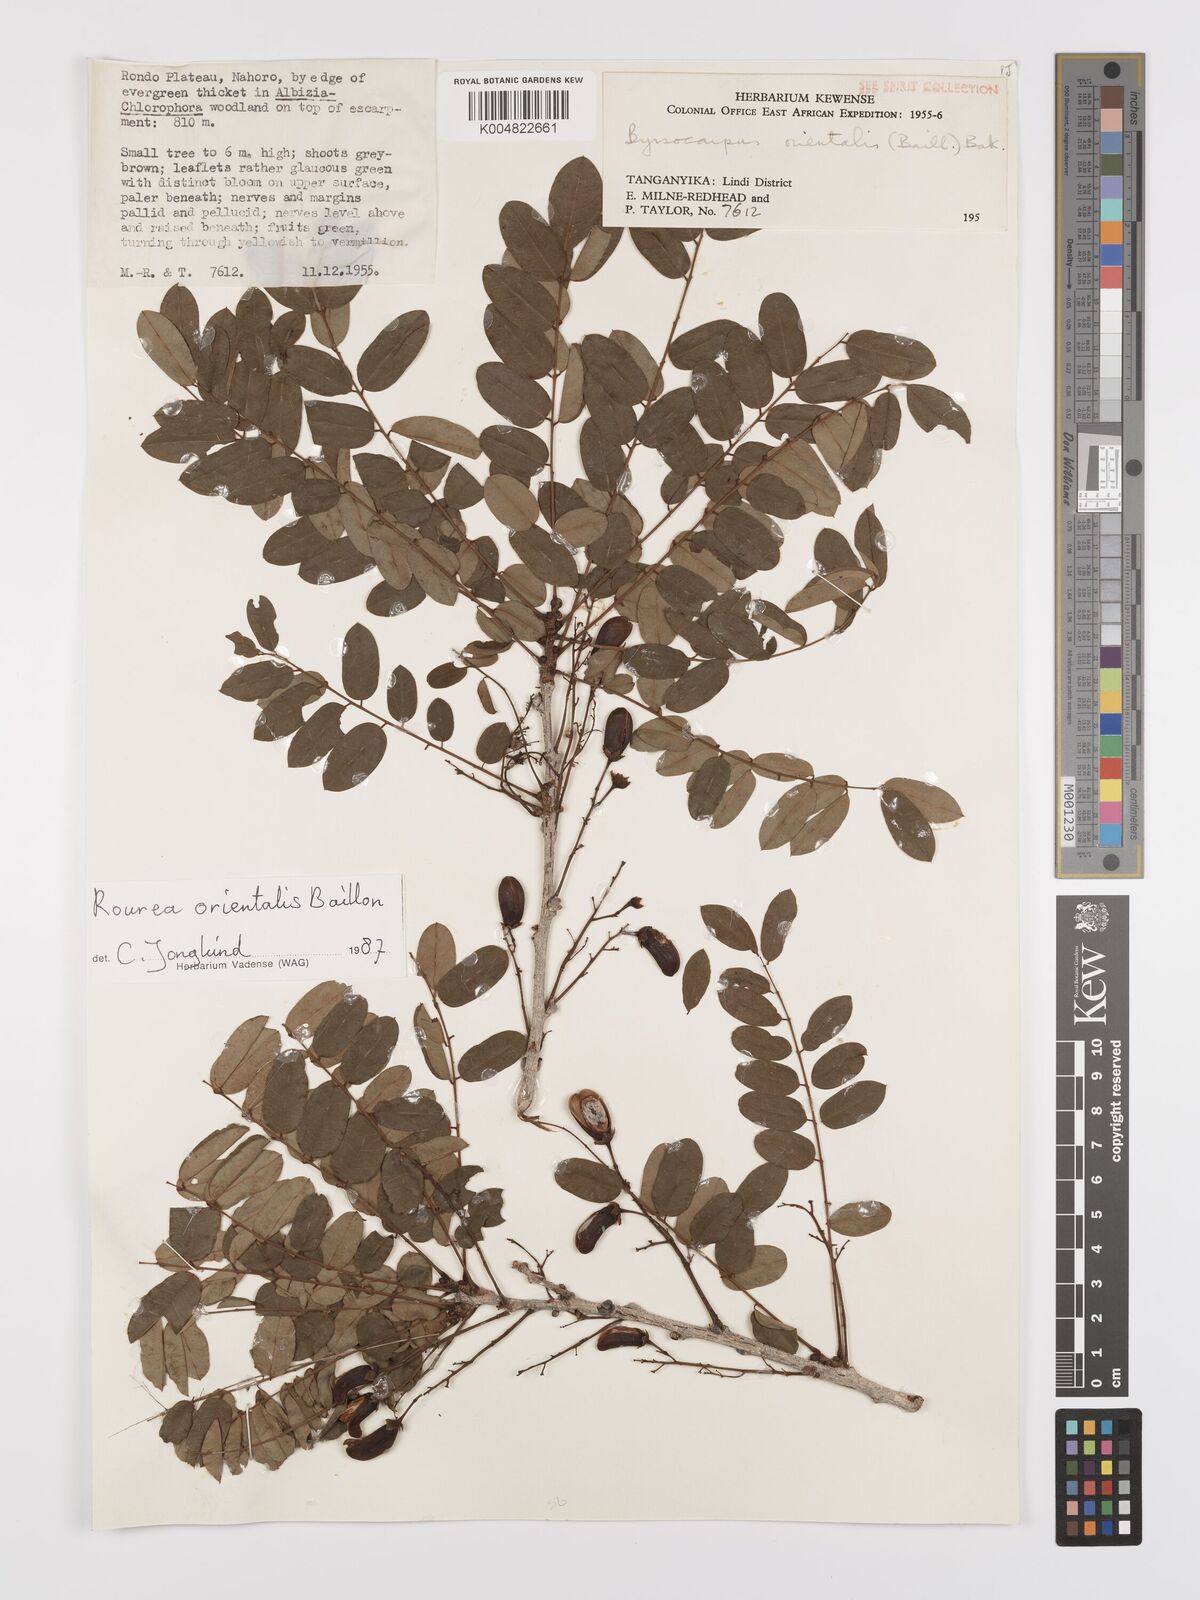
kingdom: Plantae
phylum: Tracheophyta
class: Magnoliopsida
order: Oxalidales
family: Connaraceae
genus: Rourea
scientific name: Rourea orientalis
